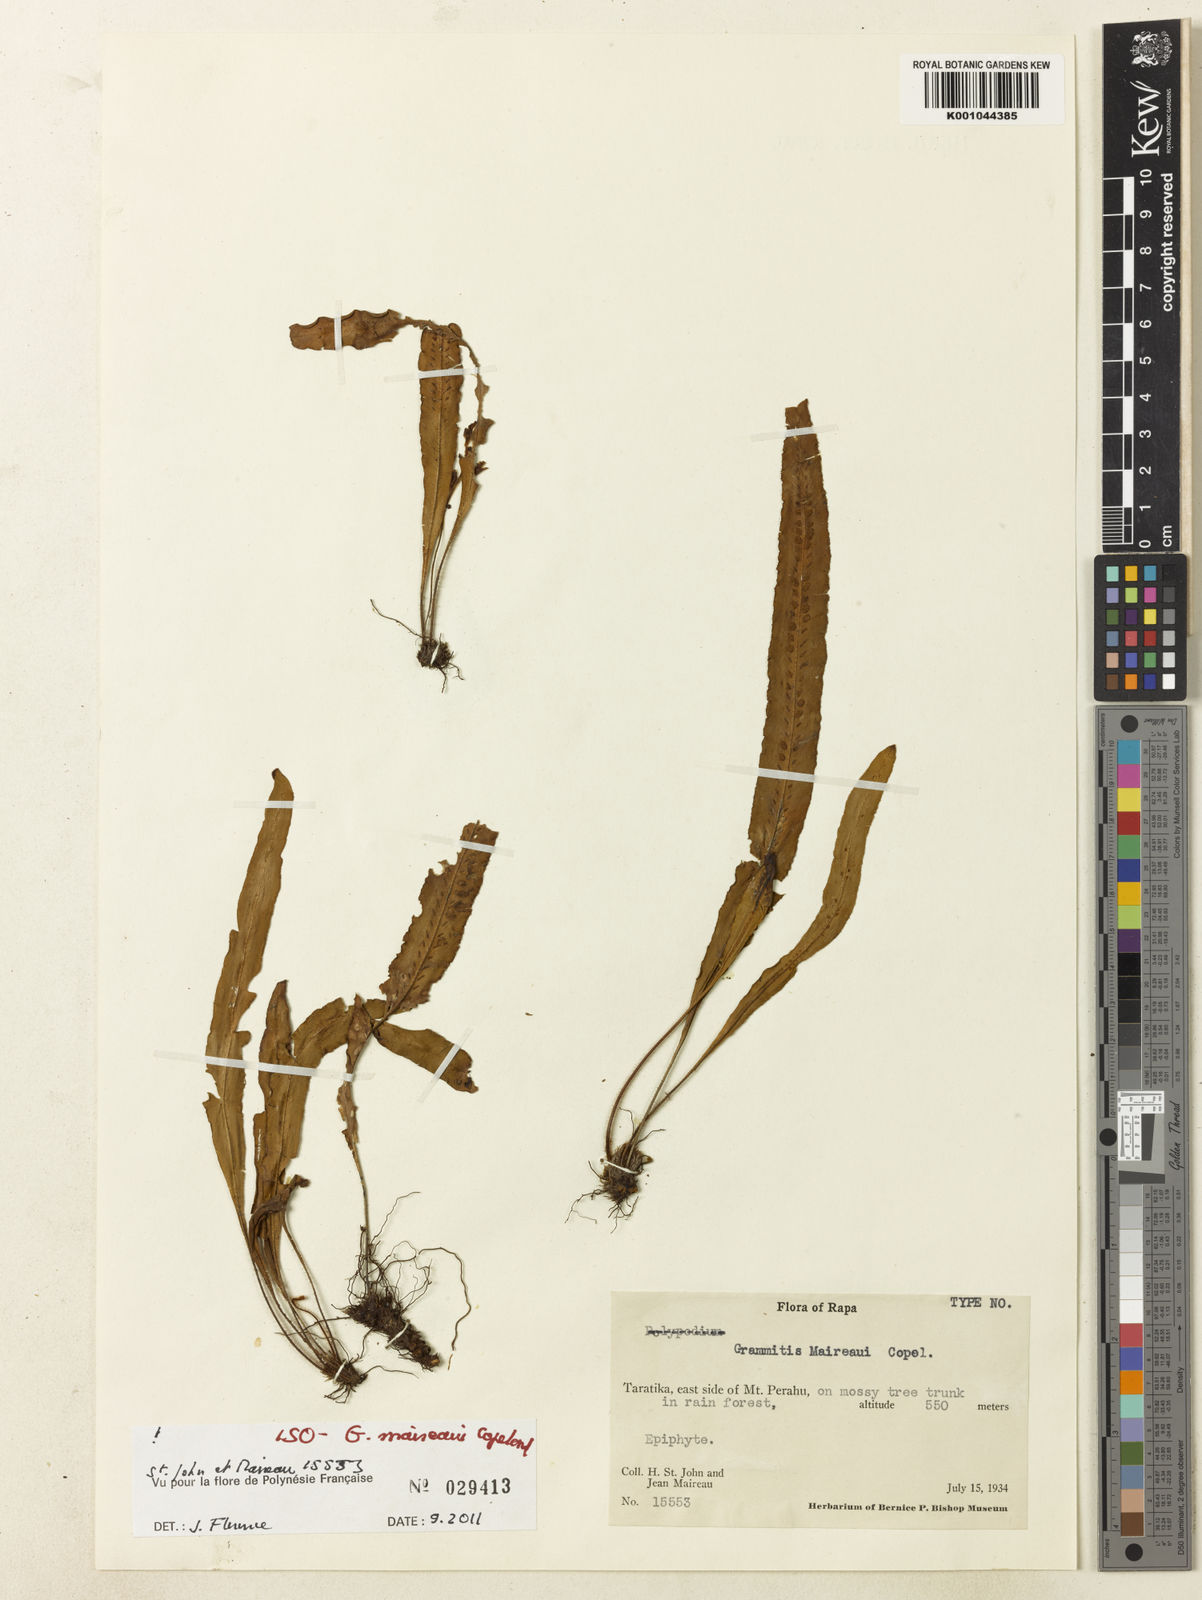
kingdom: Plantae
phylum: Tracheophyta
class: Polypodiopsida
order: Polypodiales
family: Polypodiaceae
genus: Oreogrammitis
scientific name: Oreogrammitis maireaui
